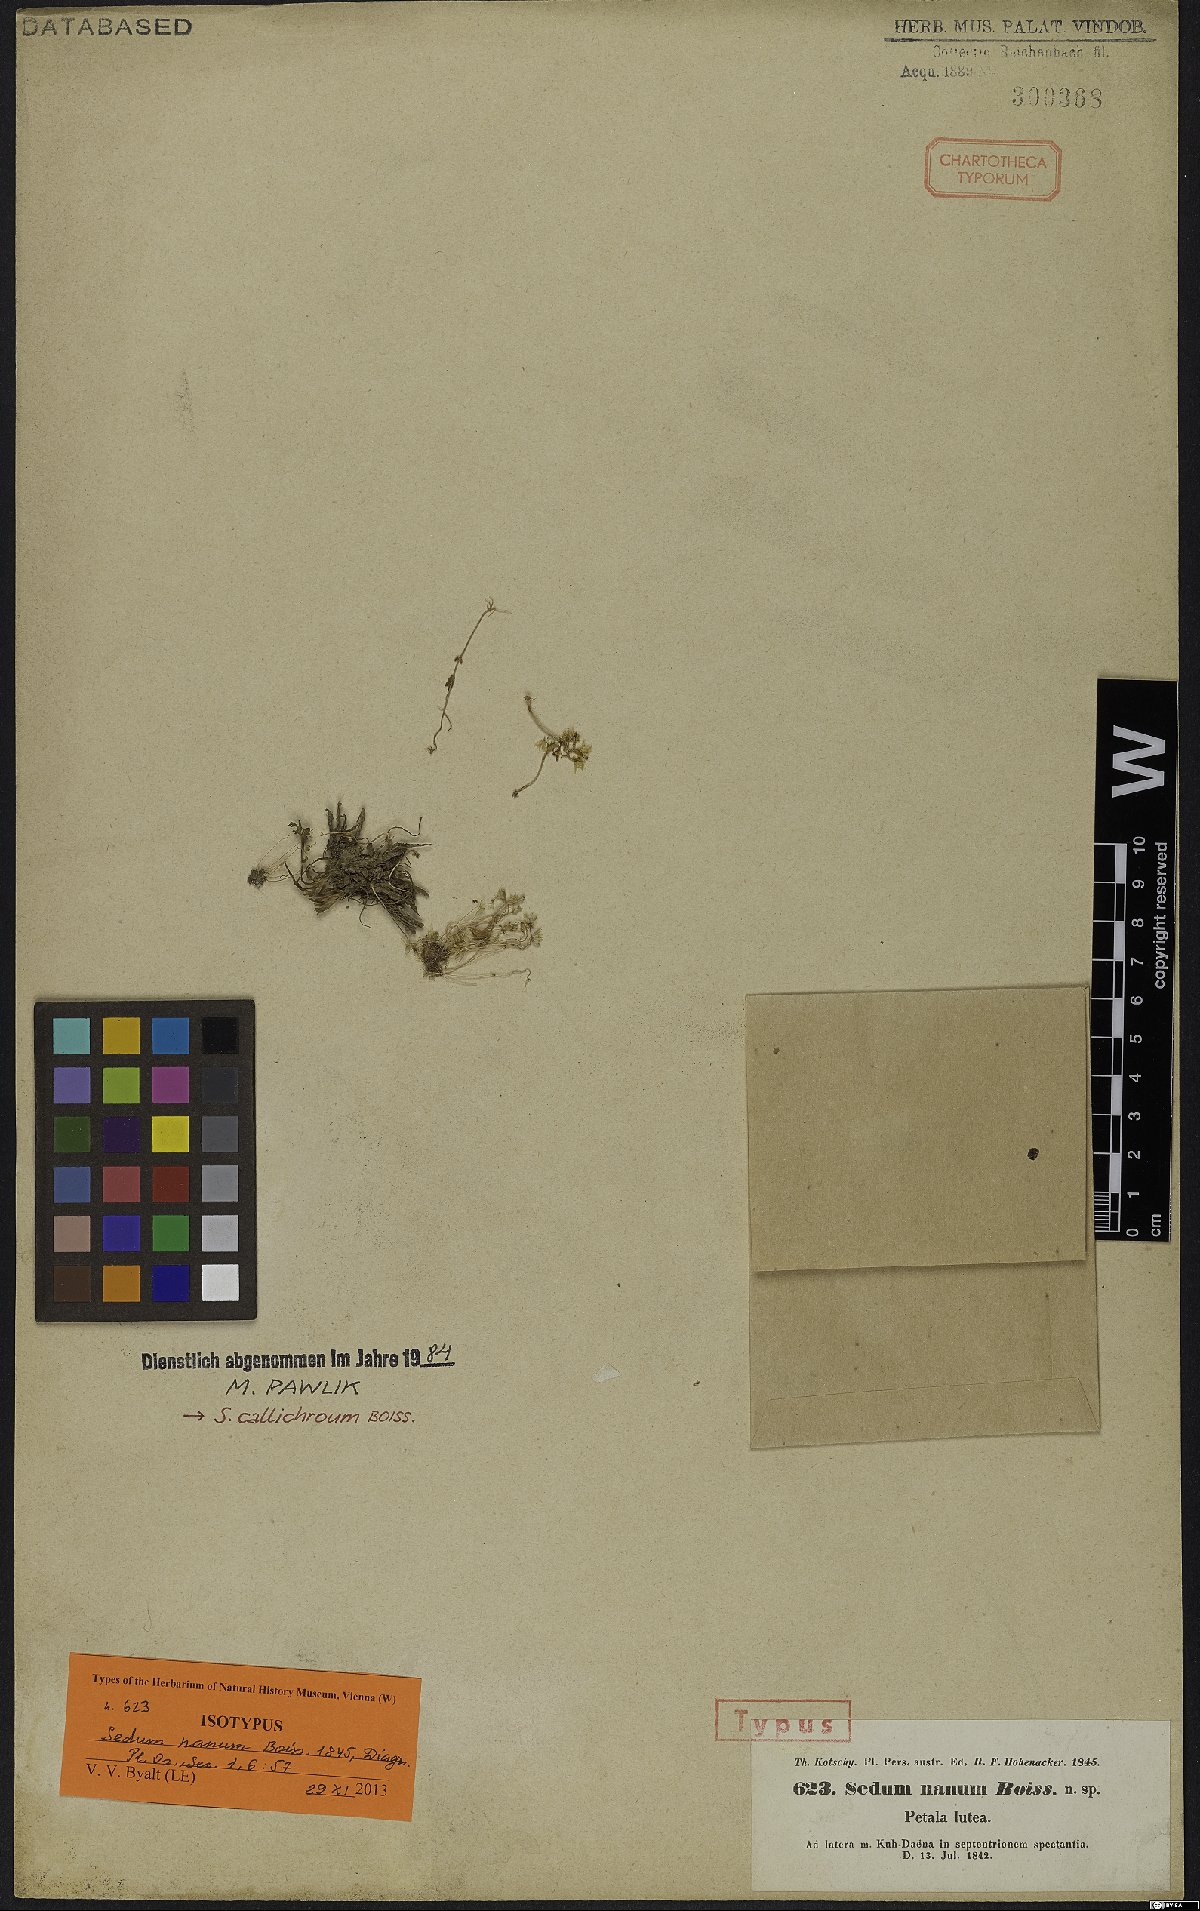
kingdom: Plantae
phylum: Tracheophyta
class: Magnoliopsida
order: Saxifragales
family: Crassulaceae
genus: Sedum
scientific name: Sedum callichroum
